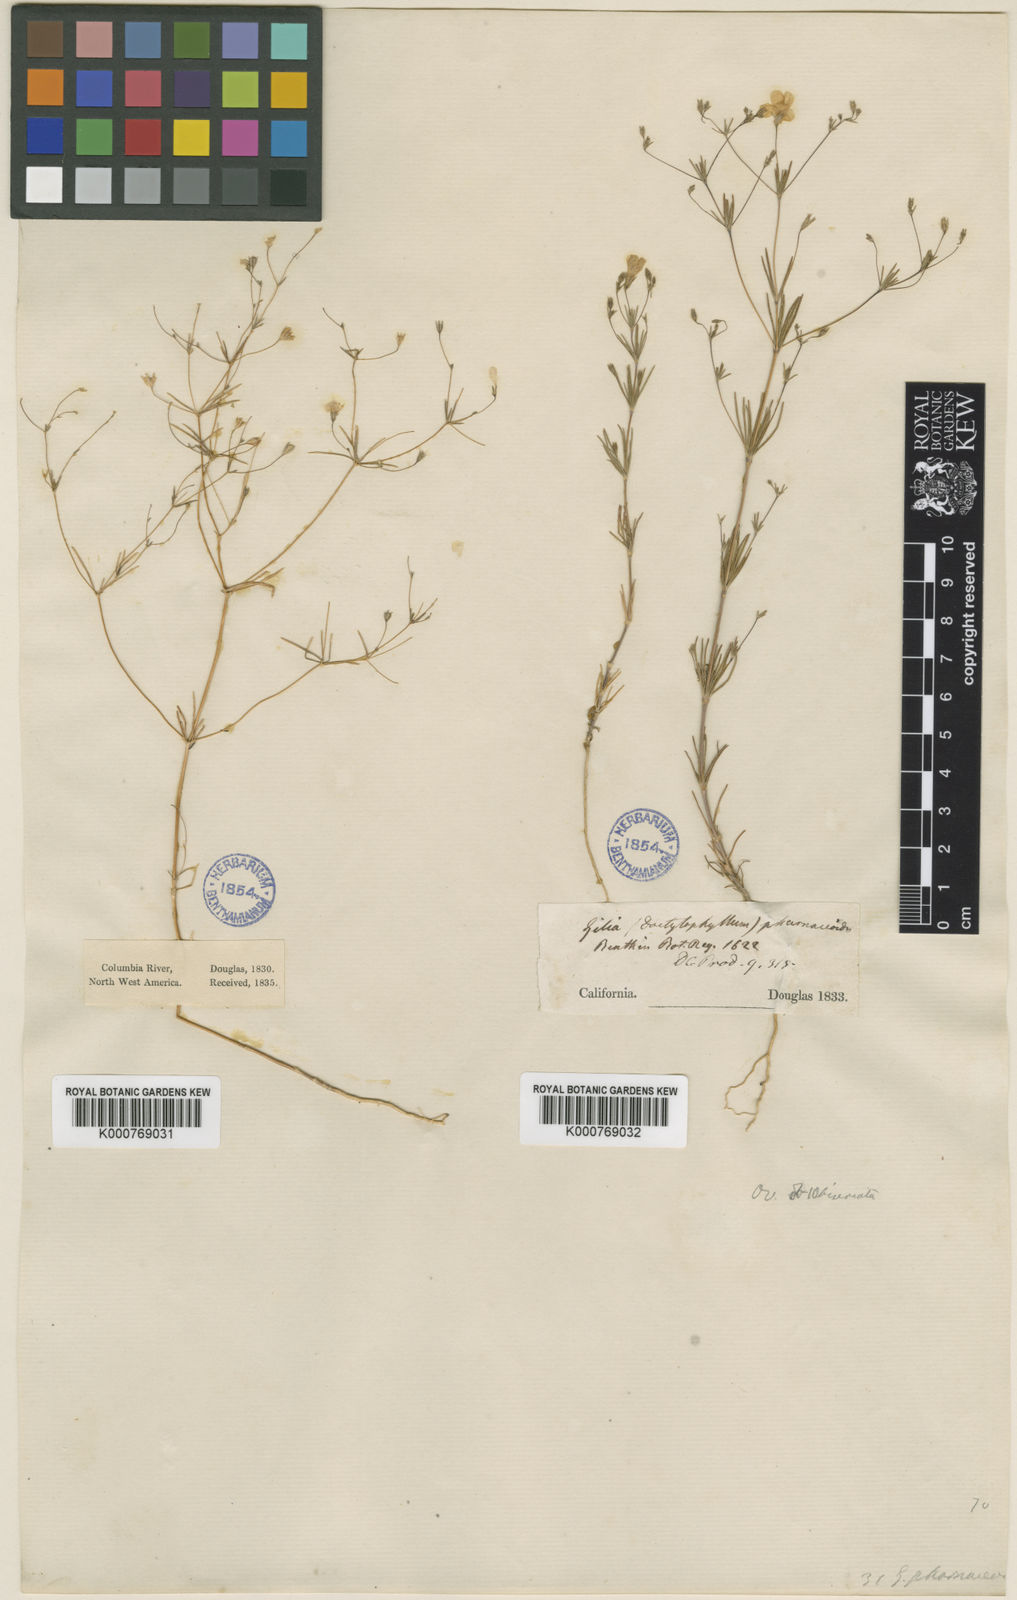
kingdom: Plantae
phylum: Tracheophyta
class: Magnoliopsida
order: Ericales
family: Polemoniaceae
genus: Leptosiphon
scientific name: Leptosiphon liniflorus
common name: Narrowflower flaxflower
